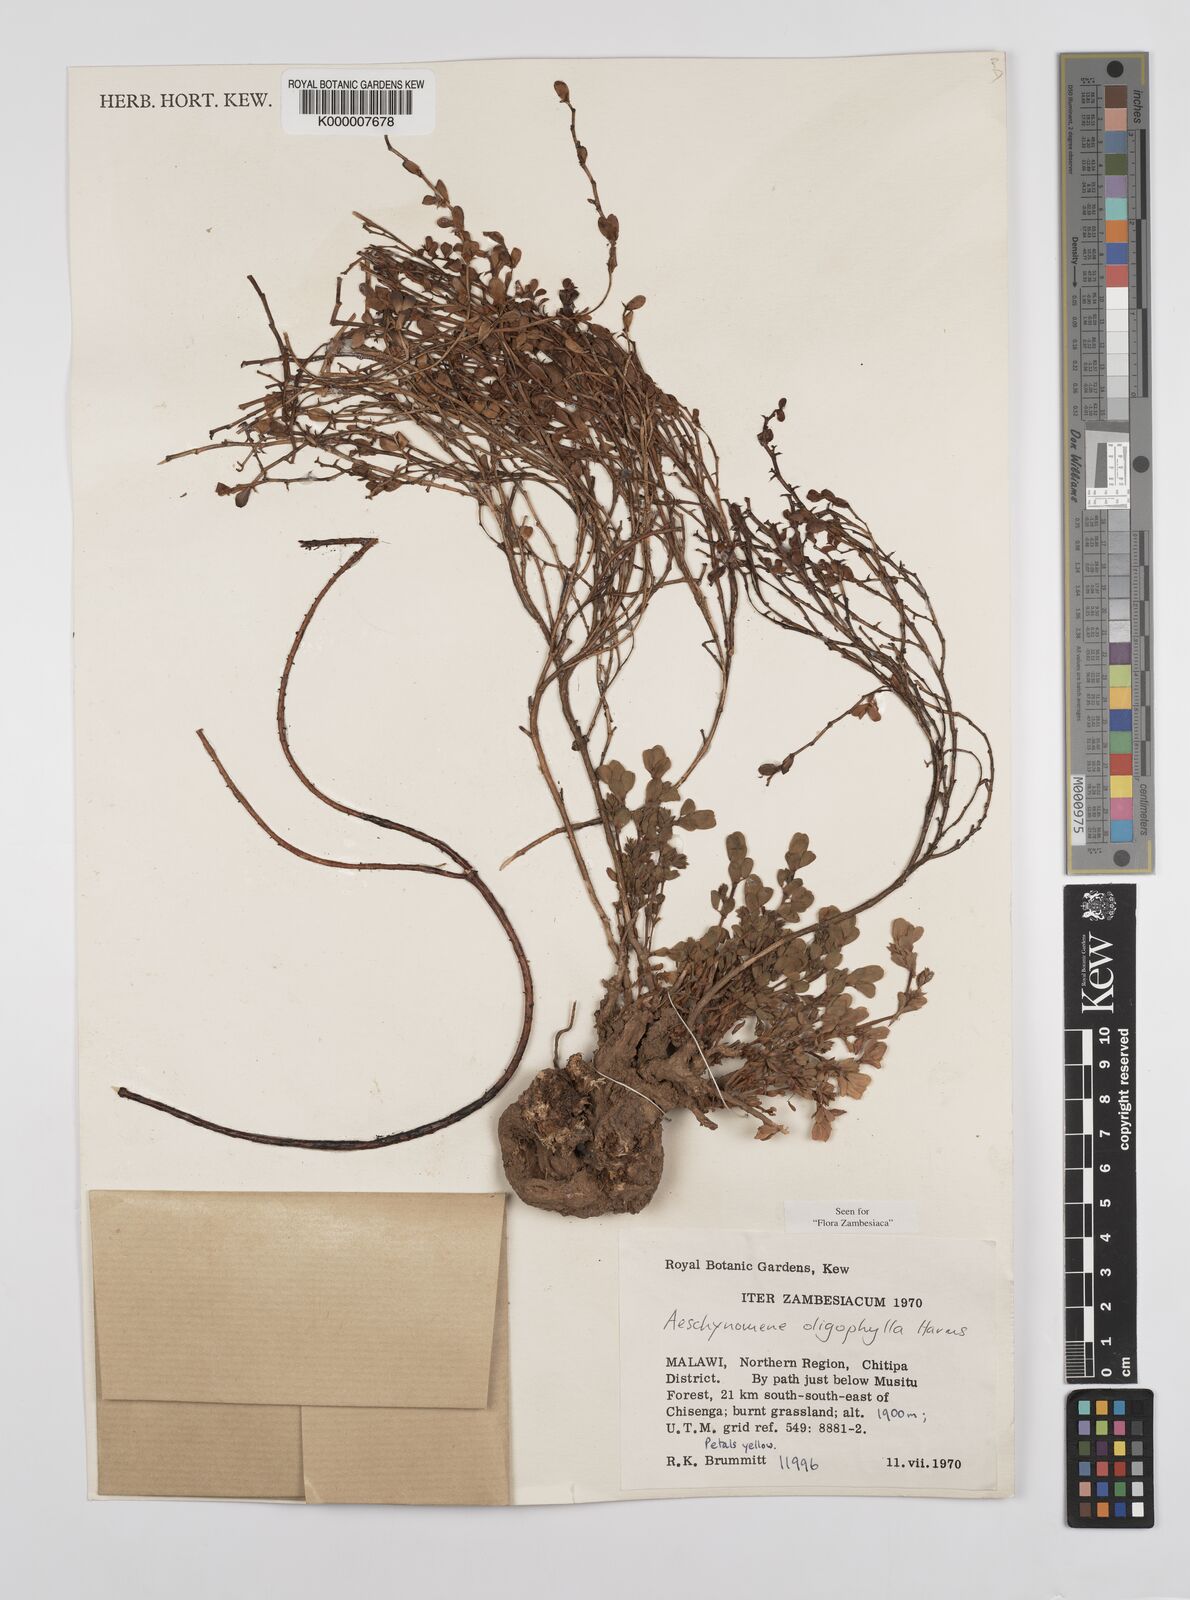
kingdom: Plantae
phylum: Tracheophyta
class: Magnoliopsida
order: Fabales
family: Fabaceae
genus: Aeschynomene
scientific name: Aeschynomene oligophylla
